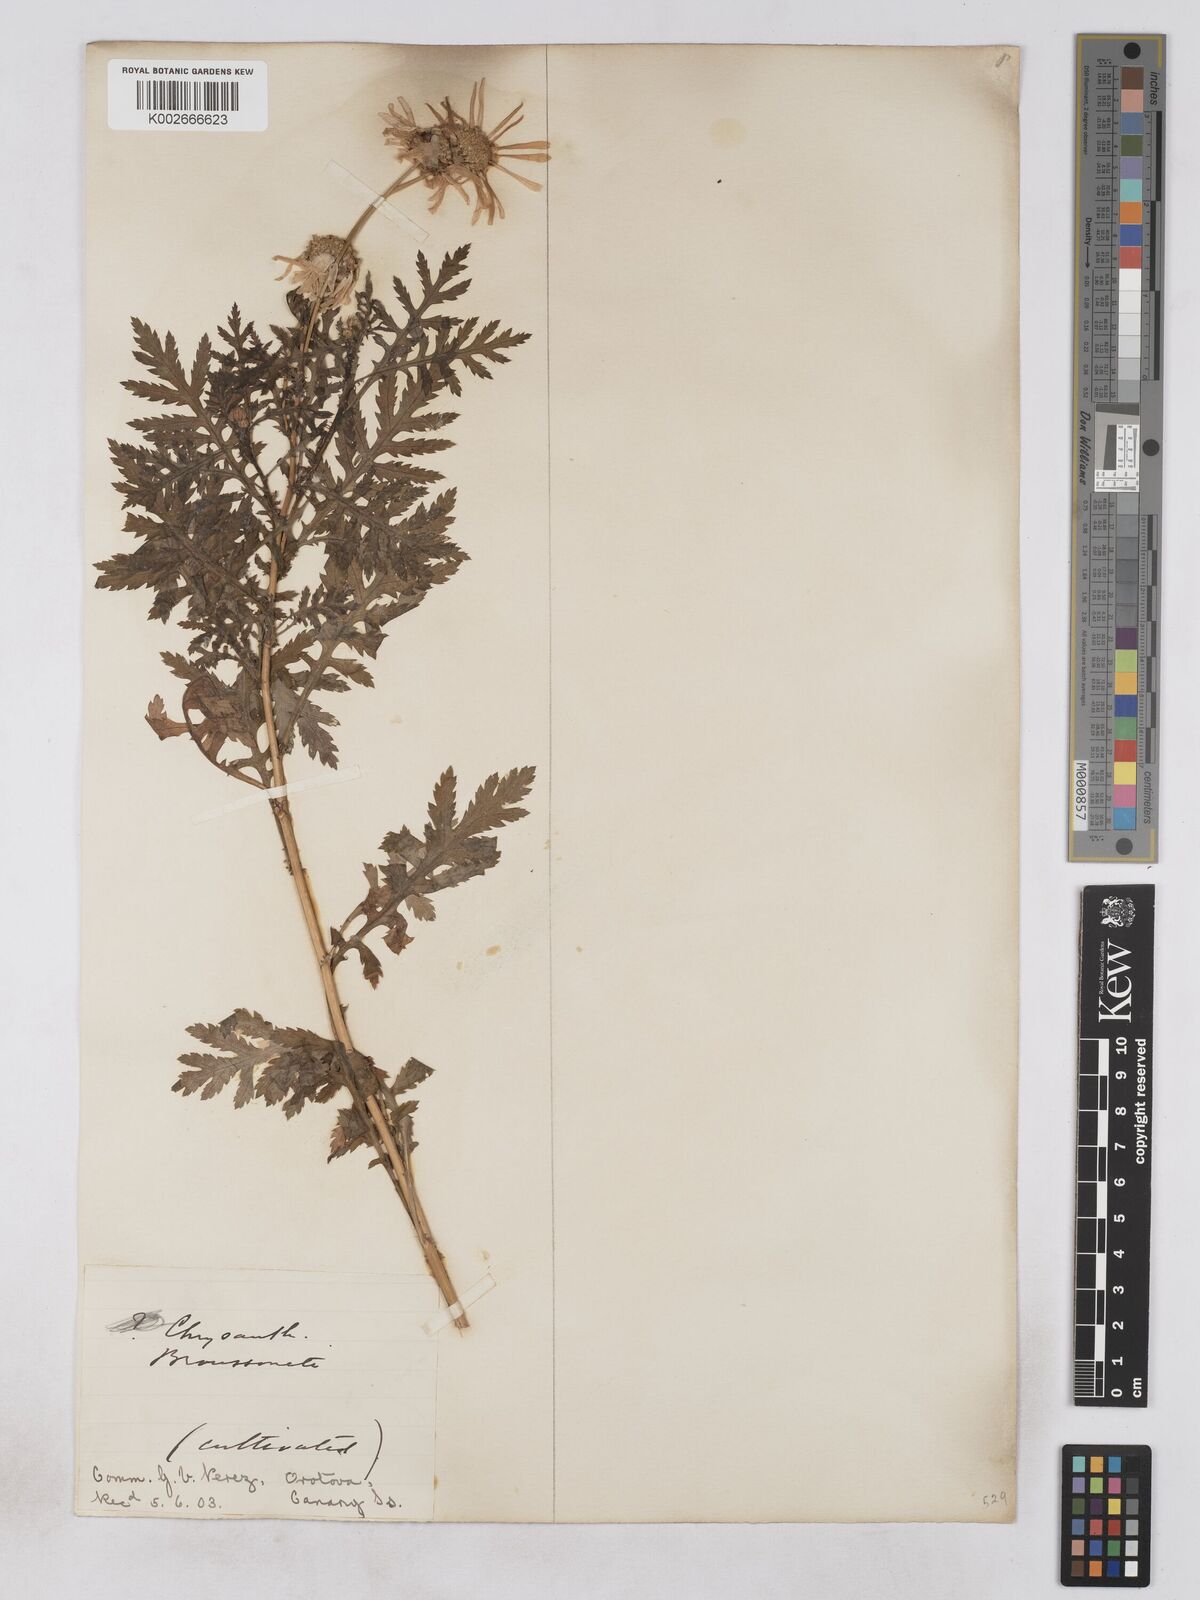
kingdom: Plantae
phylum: Tracheophyta
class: Magnoliopsida
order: Asterales
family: Asteraceae
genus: Argyranthemum
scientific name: Argyranthemum broussonetii
